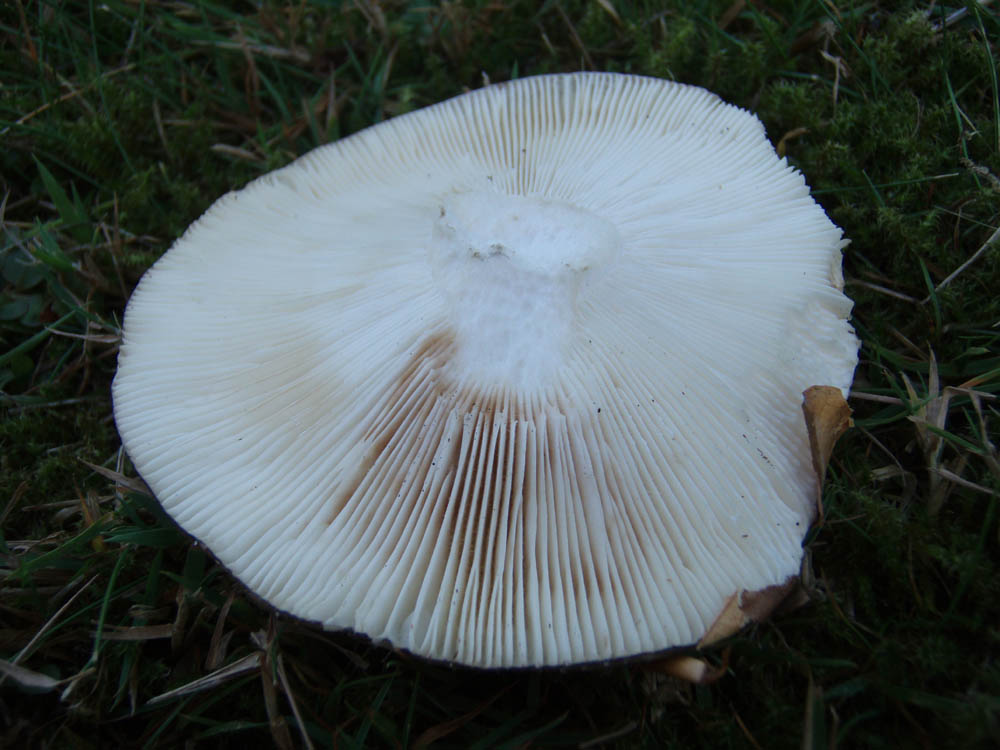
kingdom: Fungi
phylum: Basidiomycota
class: Agaricomycetes
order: Russulales
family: Russulaceae
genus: Russula
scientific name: Russula cyanoxantha
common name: broget skørhat
